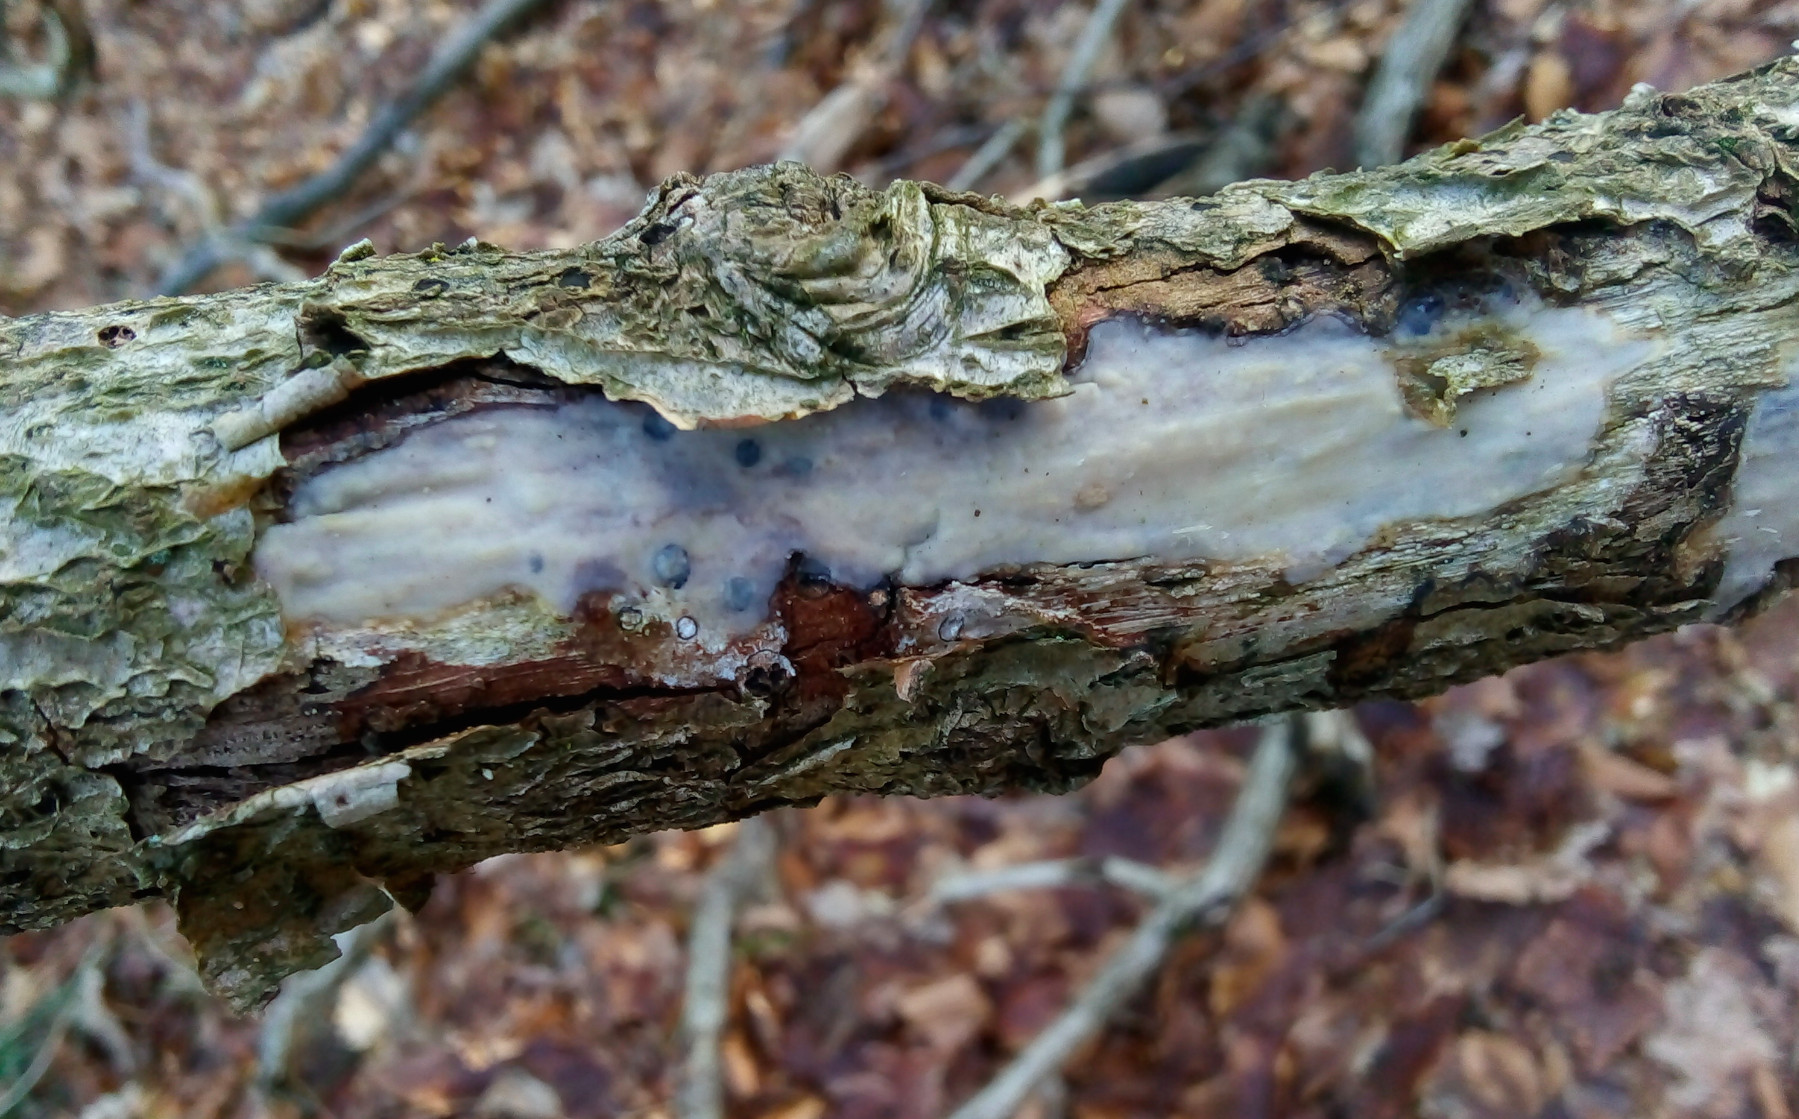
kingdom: Fungi
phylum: Basidiomycota
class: Agaricomycetes
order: Corticiales
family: Vuilleminiaceae
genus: Vuilleminia
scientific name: Vuilleminia comedens
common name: almindelig barksprænger
